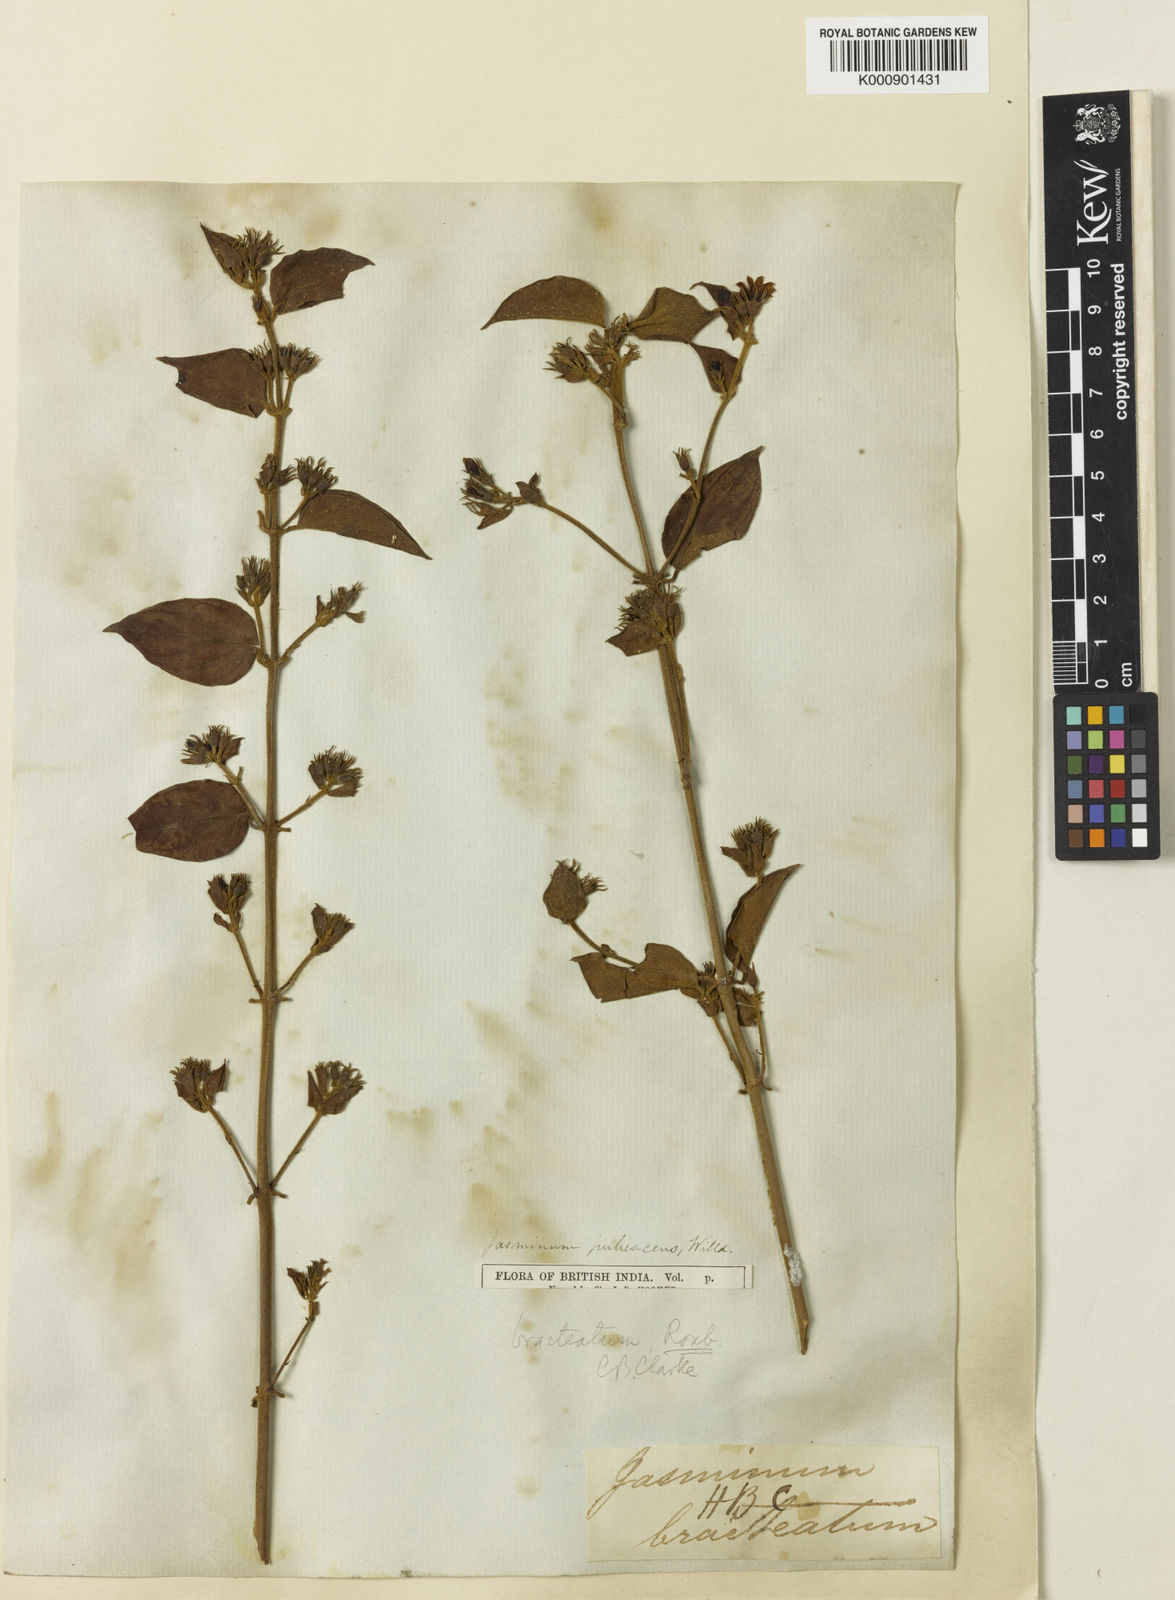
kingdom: Plantae
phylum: Tracheophyta
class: Magnoliopsida
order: Lamiales
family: Oleaceae
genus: Jasminum
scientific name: Jasminum elongatum
